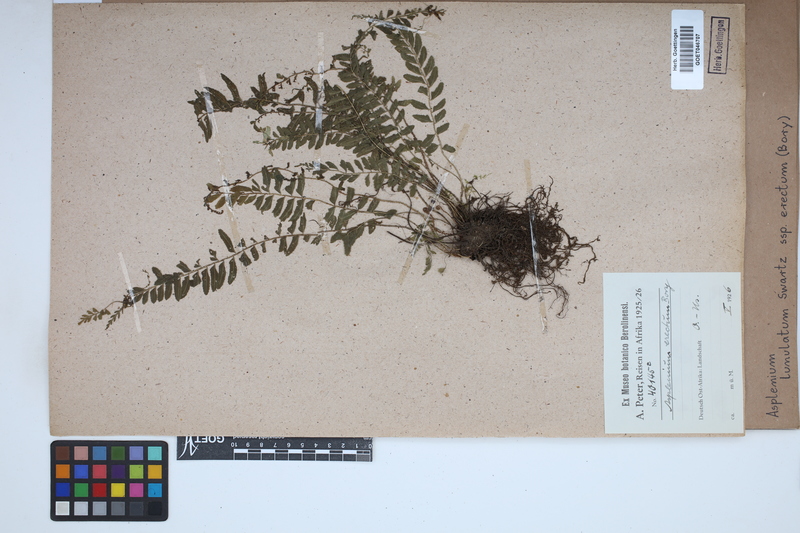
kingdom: Plantae
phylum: Tracheophyta
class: Polypodiopsida
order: Polypodiales
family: Aspleniaceae
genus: Asplenium
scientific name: Asplenium erectum
